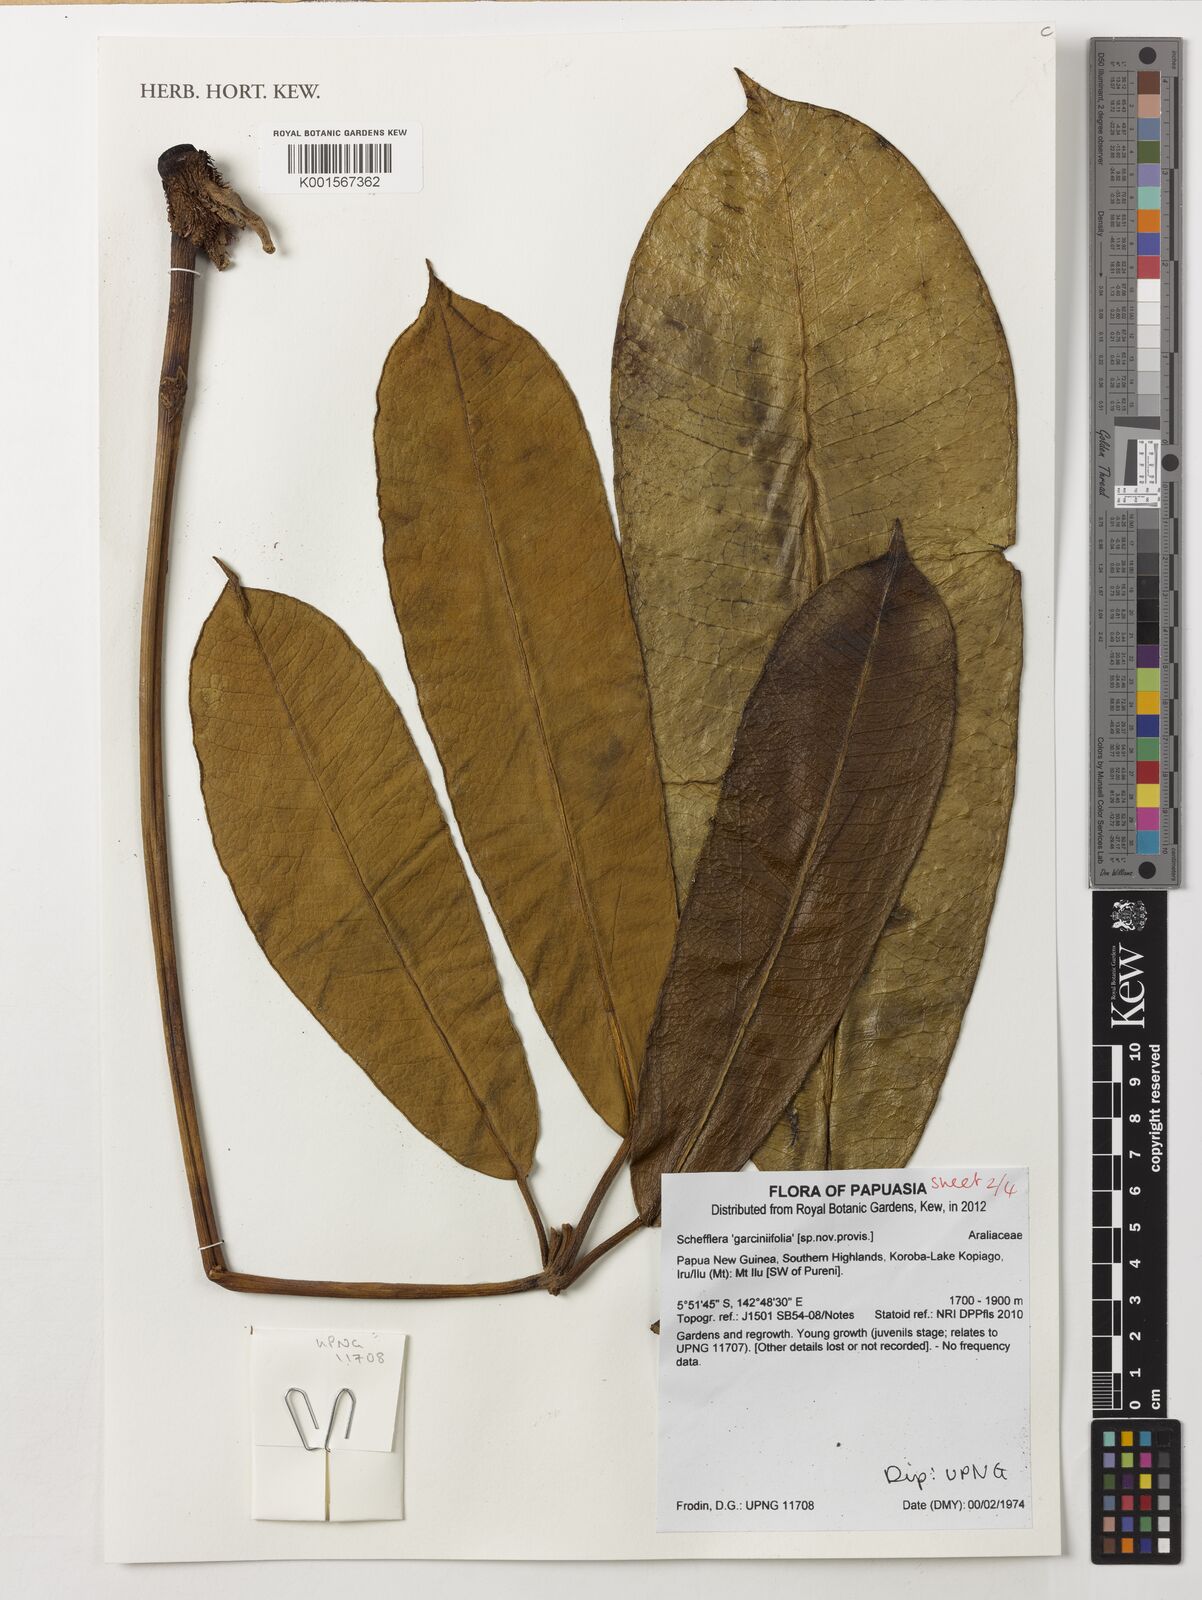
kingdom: Plantae
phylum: Tracheophyta
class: Magnoliopsida
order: Apiales
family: Araliaceae
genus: Schefflera
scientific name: Schefflera
